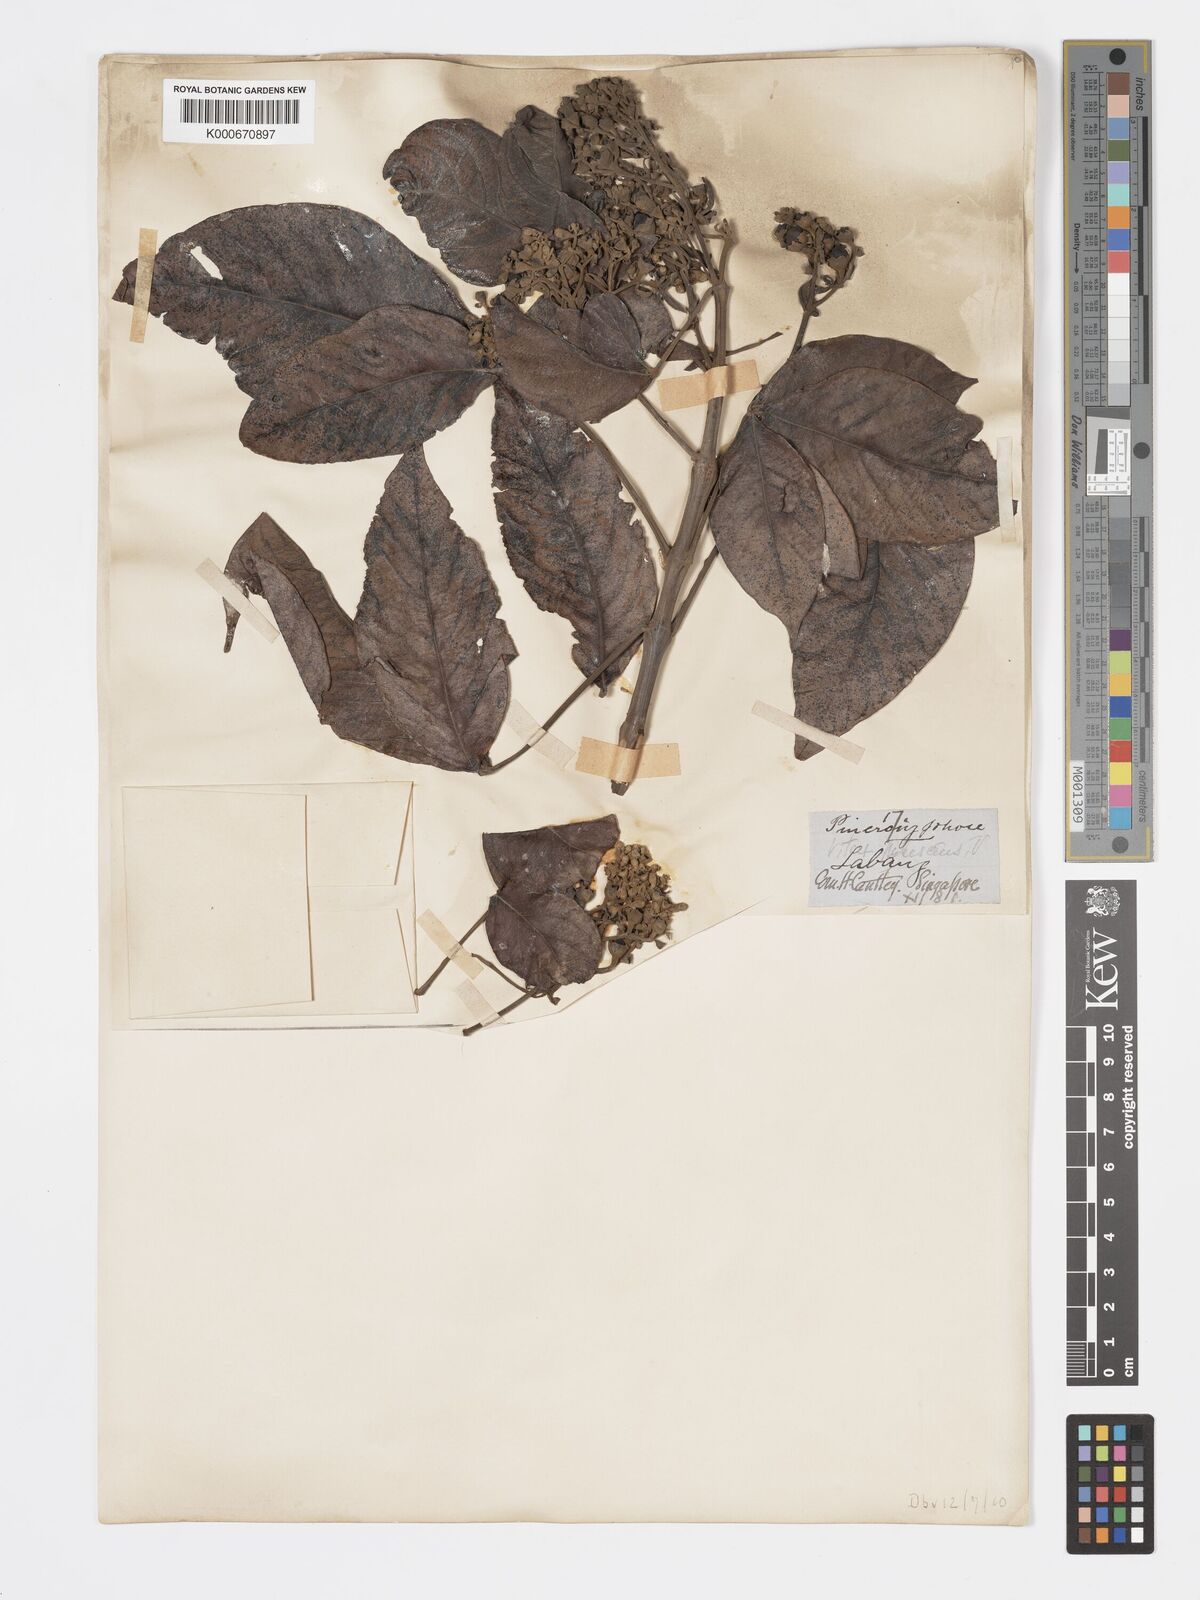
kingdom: Plantae
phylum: Tracheophyta
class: Magnoliopsida
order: Lamiales
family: Lamiaceae
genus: Vitex
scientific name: Vitex pinnata
